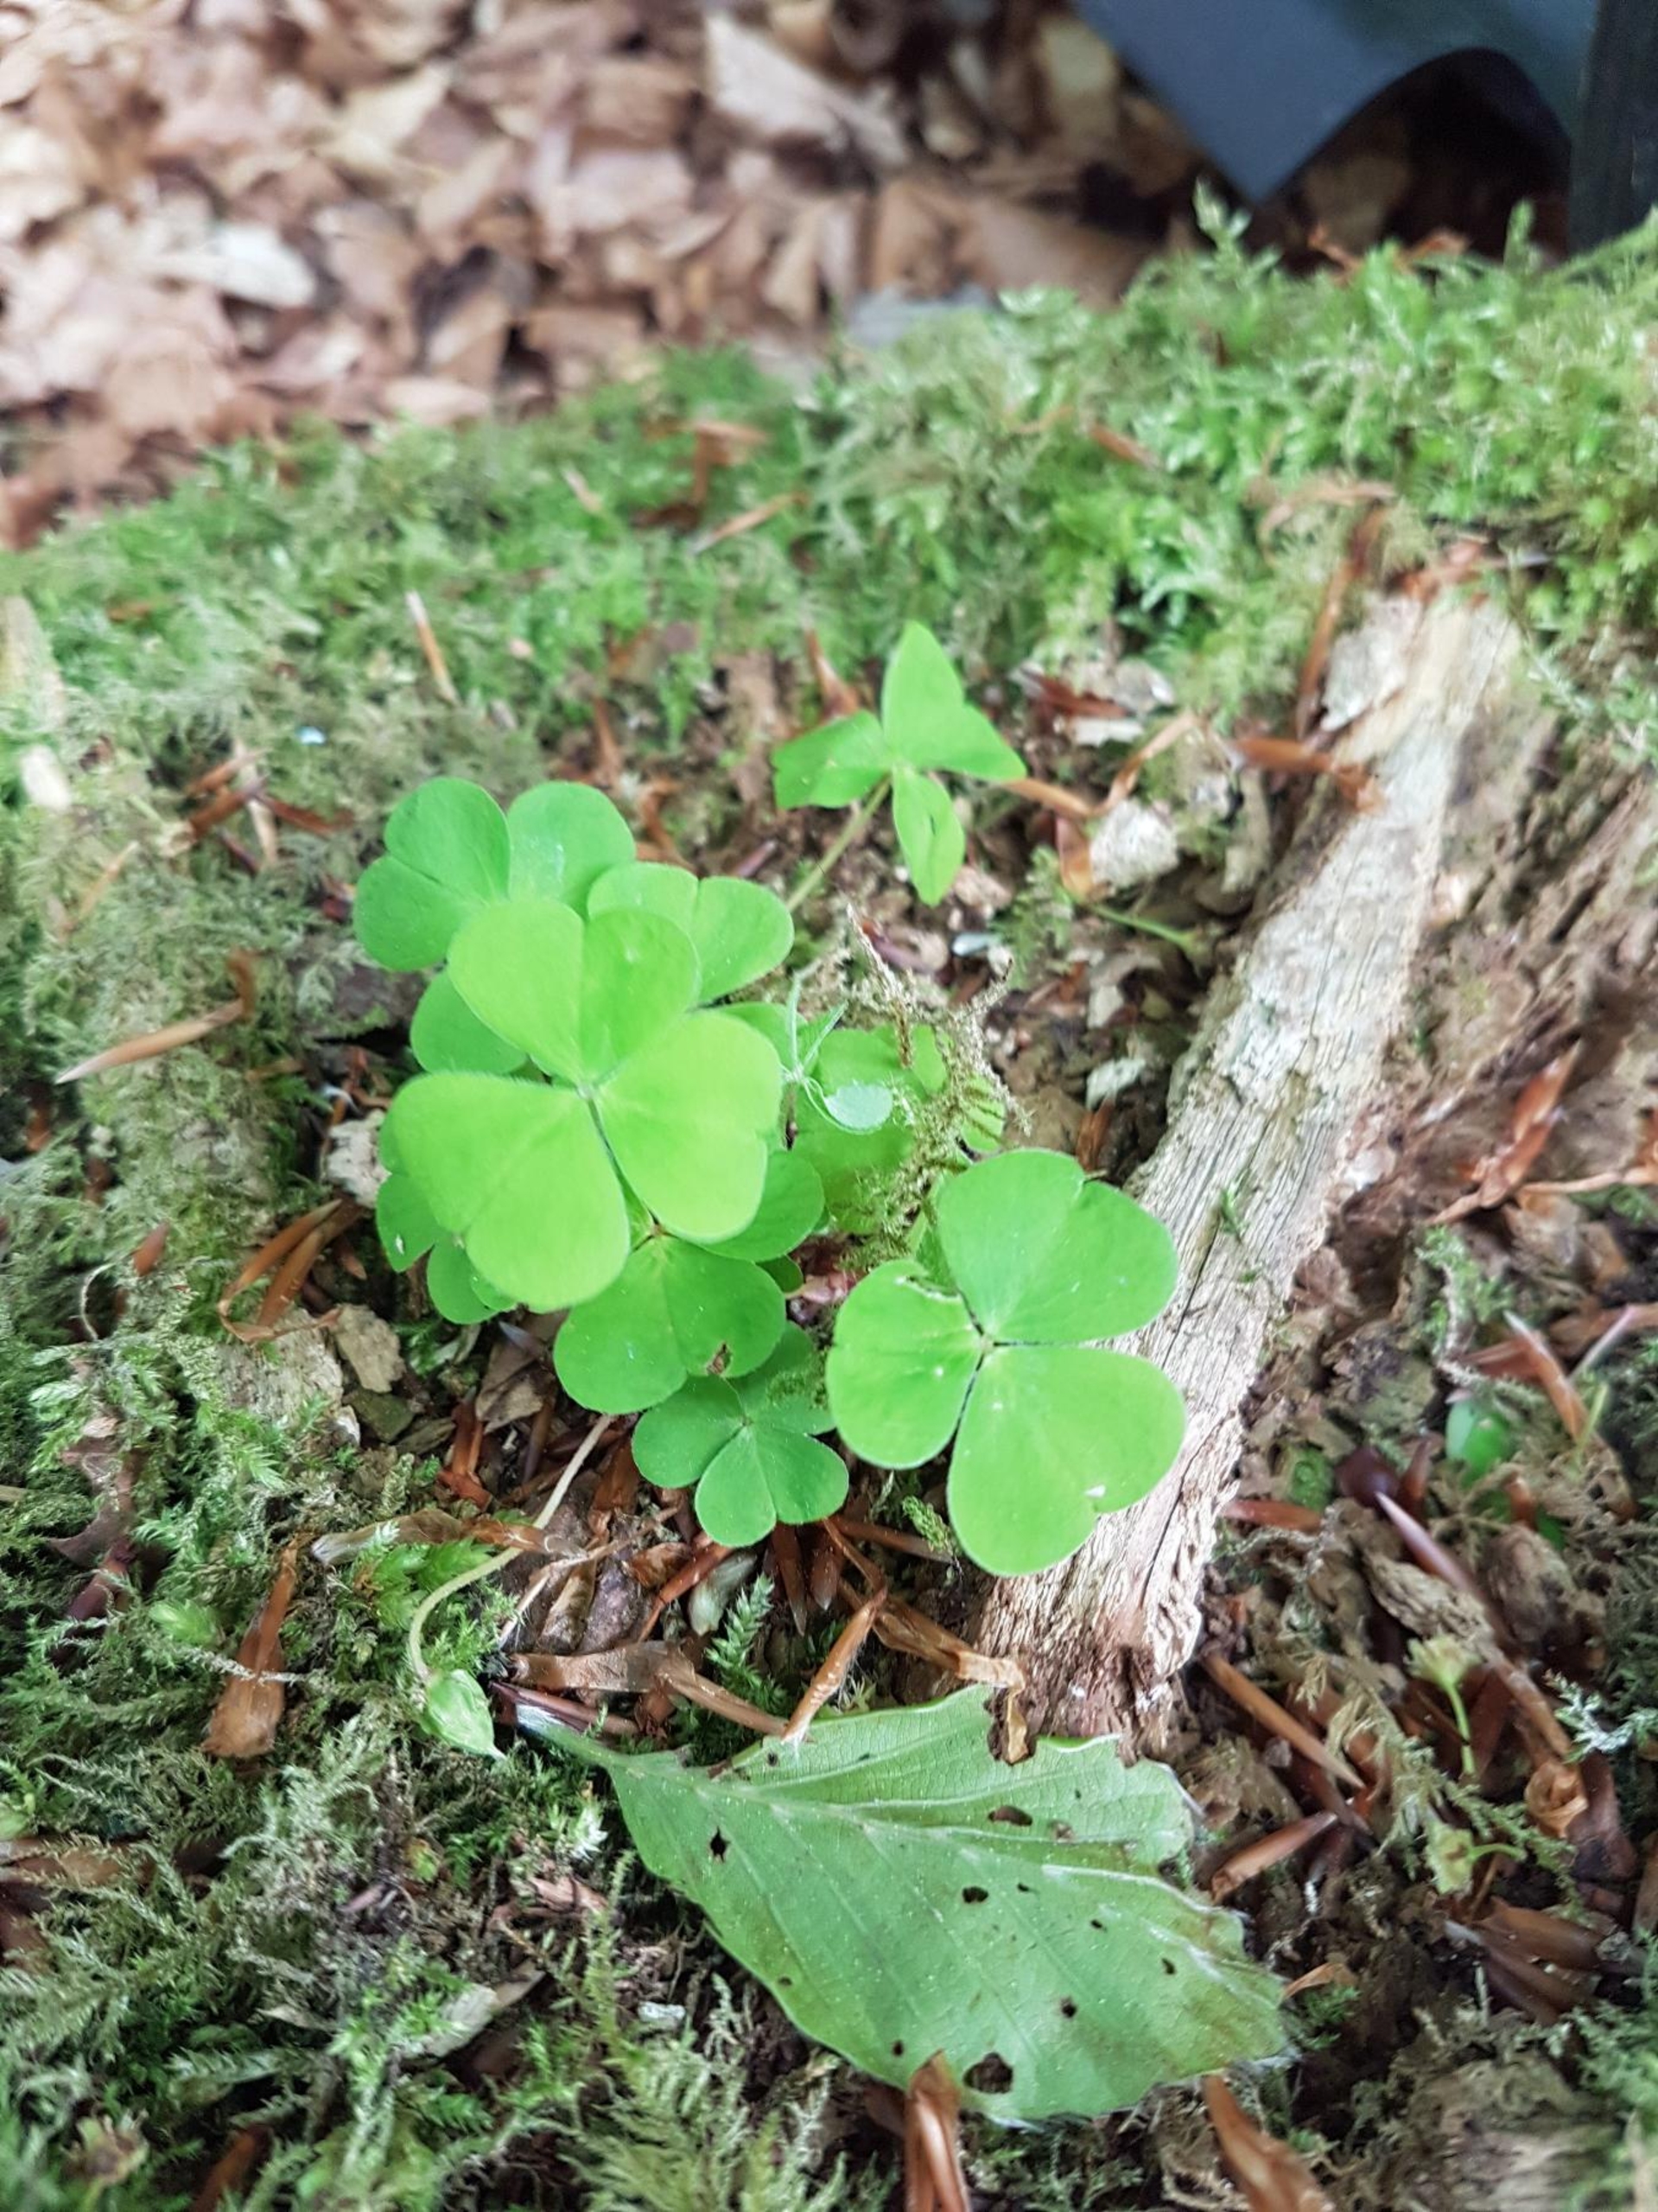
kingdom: Plantae
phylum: Tracheophyta
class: Magnoliopsida
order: Oxalidales
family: Oxalidaceae
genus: Oxalis
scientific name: Oxalis acetosella
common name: Skovsyre
